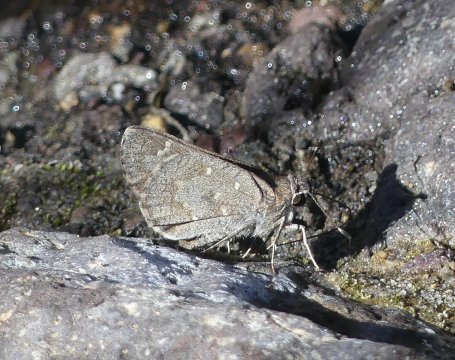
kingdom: Animalia
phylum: Arthropoda
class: Insecta
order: Lepidoptera
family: Hesperiidae
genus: Atrytonopsis
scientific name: Atrytonopsis ovinia
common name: Sheep Skipper
